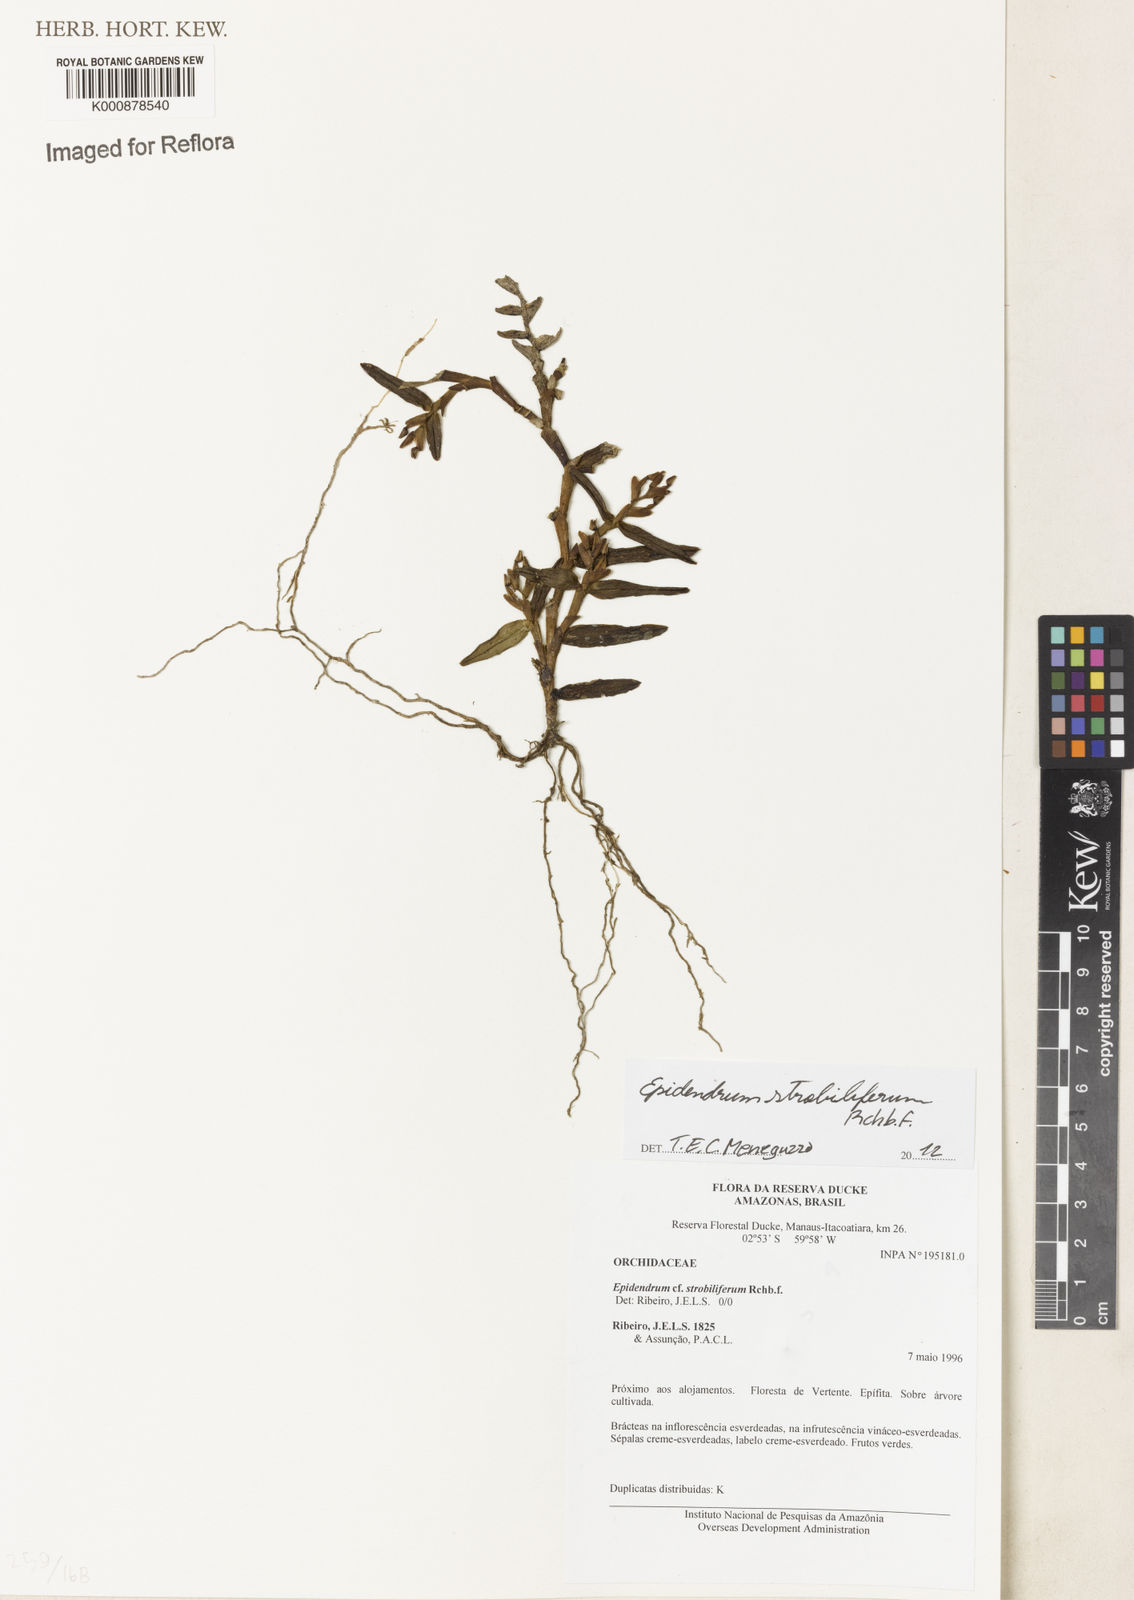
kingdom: Plantae
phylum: Tracheophyta
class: Liliopsida
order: Asparagales
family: Orchidaceae
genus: Epidendrum
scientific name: Epidendrum strobiliferum
